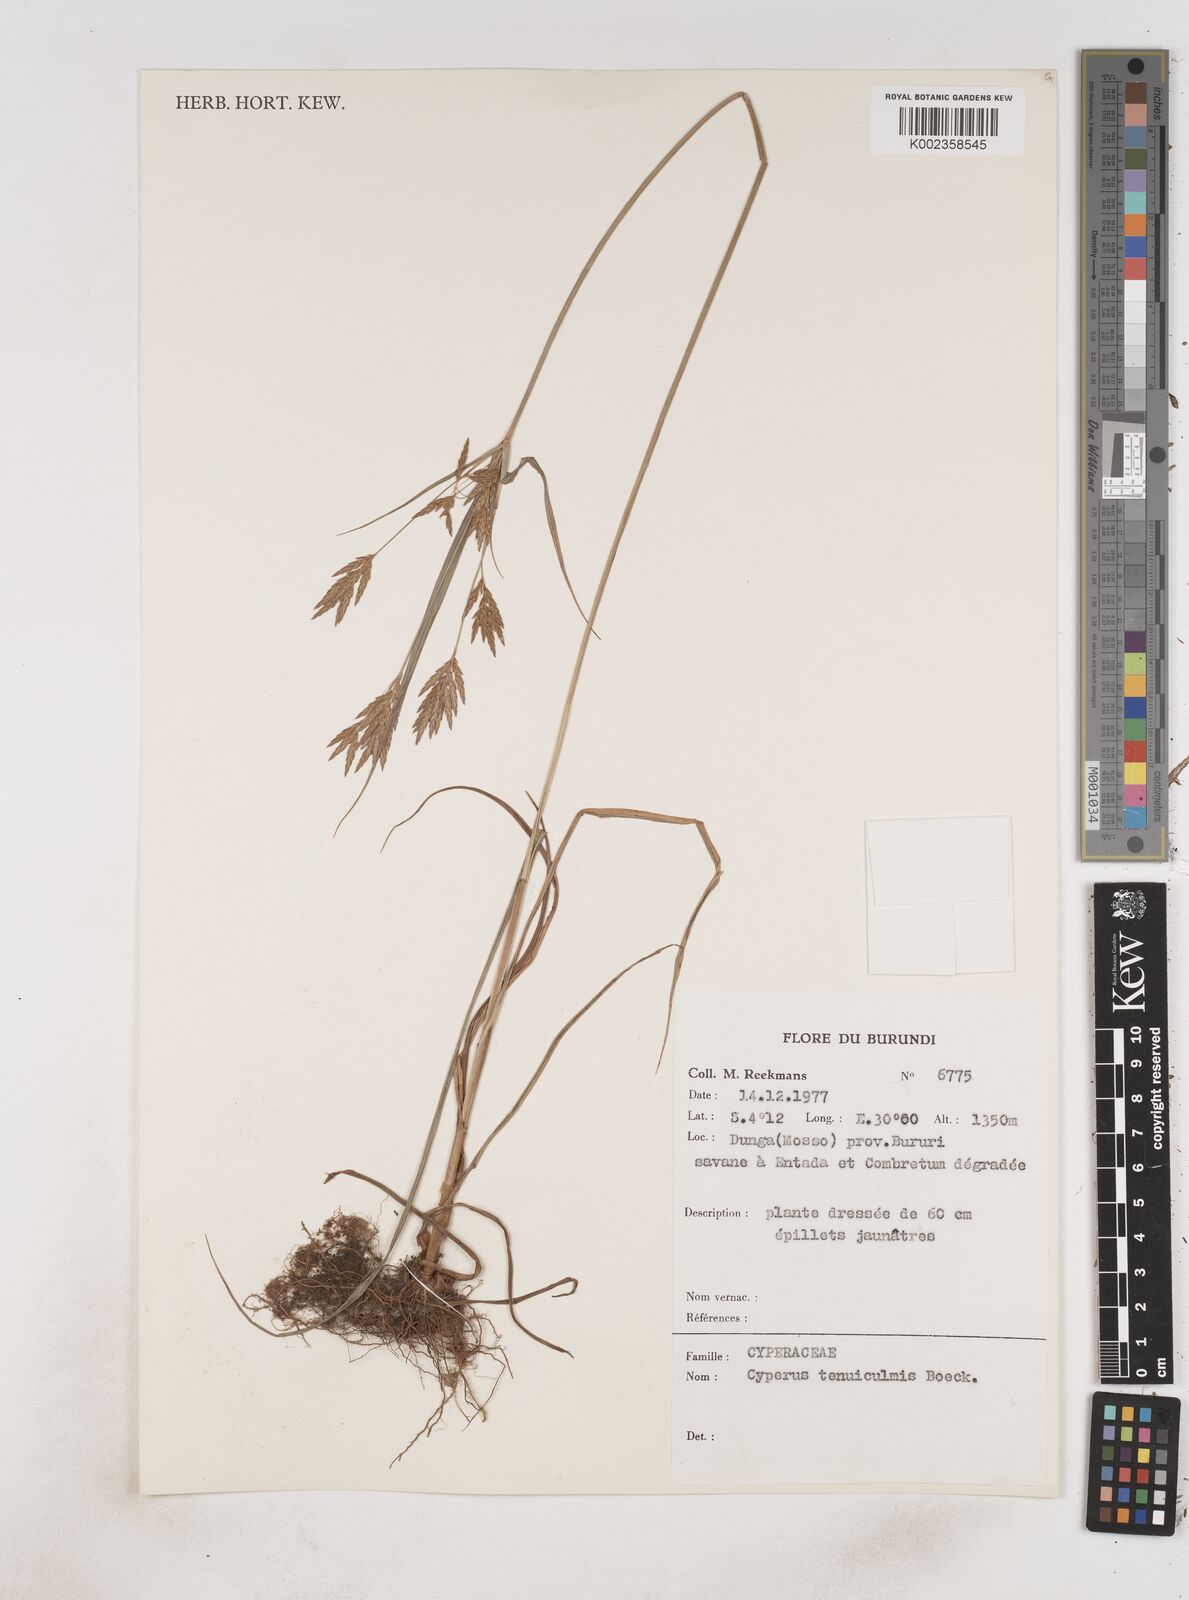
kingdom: Plantae
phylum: Tracheophyta
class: Liliopsida
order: Poales
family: Cyperaceae
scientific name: Cyperaceae
